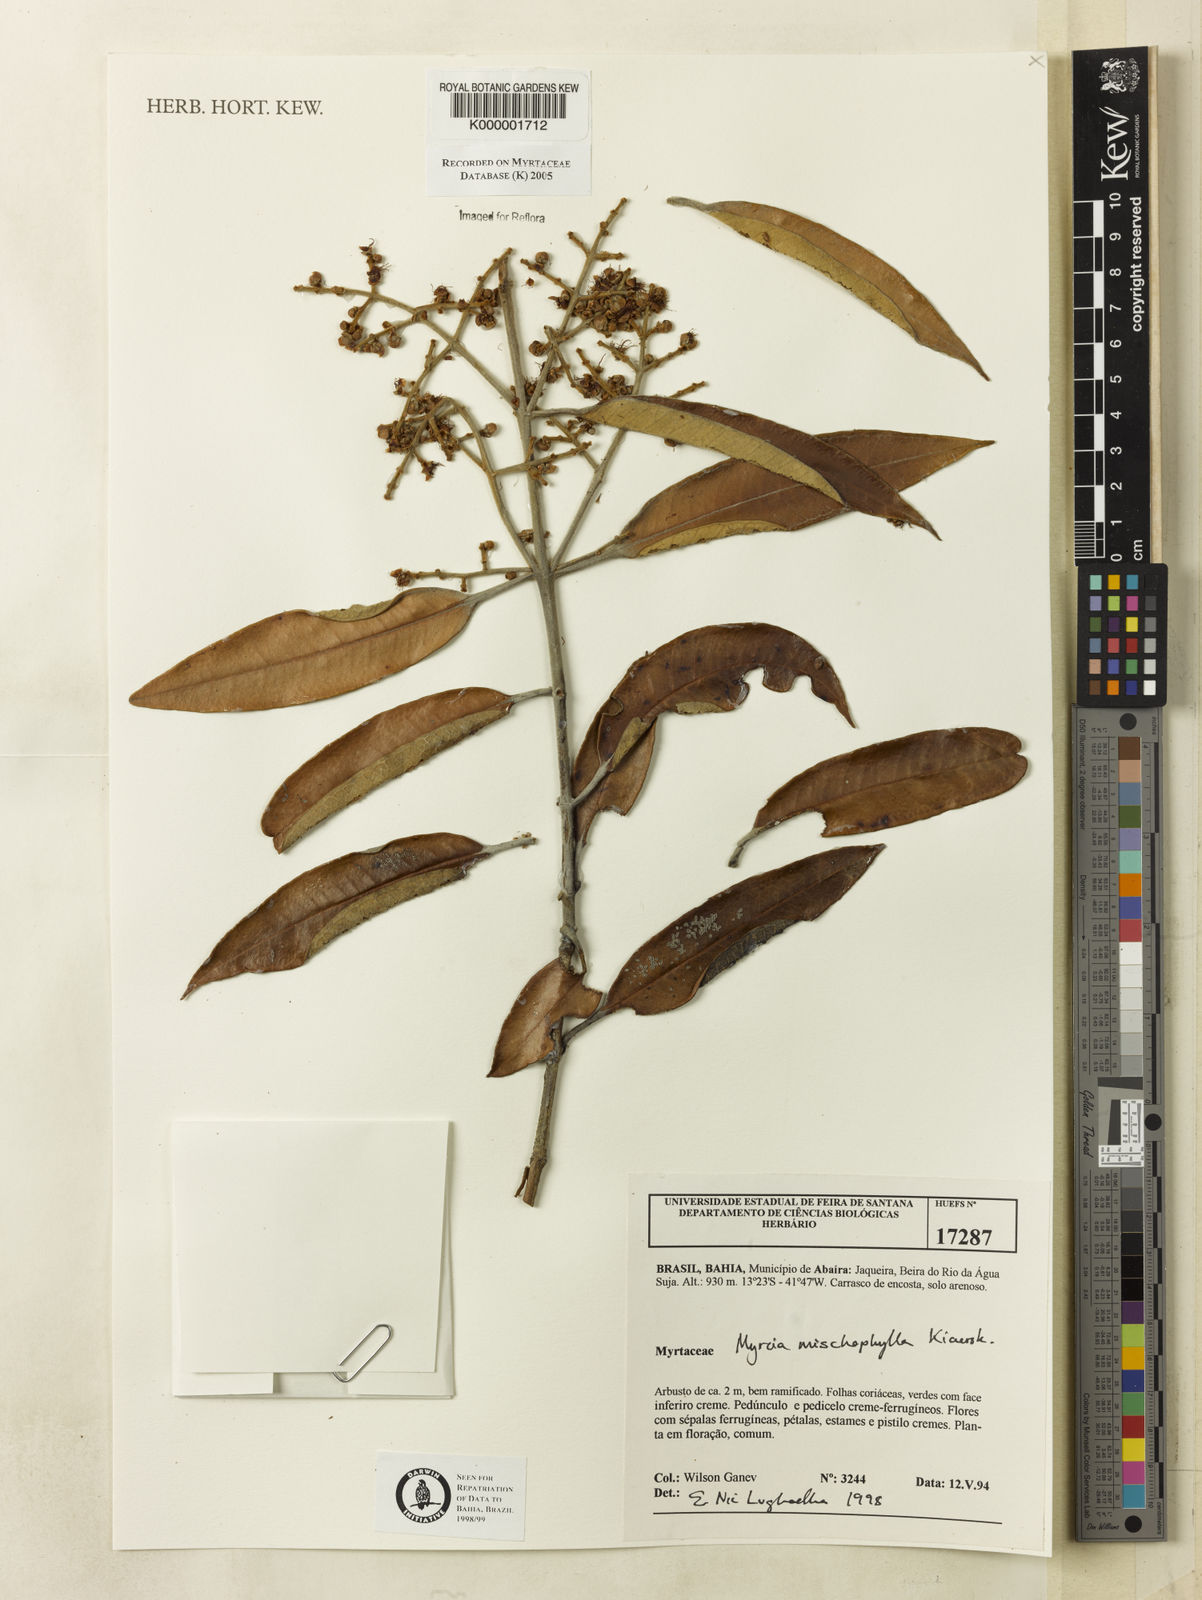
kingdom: Plantae
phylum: Tracheophyta
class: Magnoliopsida
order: Myrtales
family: Myrtaceae
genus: Myrcia
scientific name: Myrcia mischophylla
